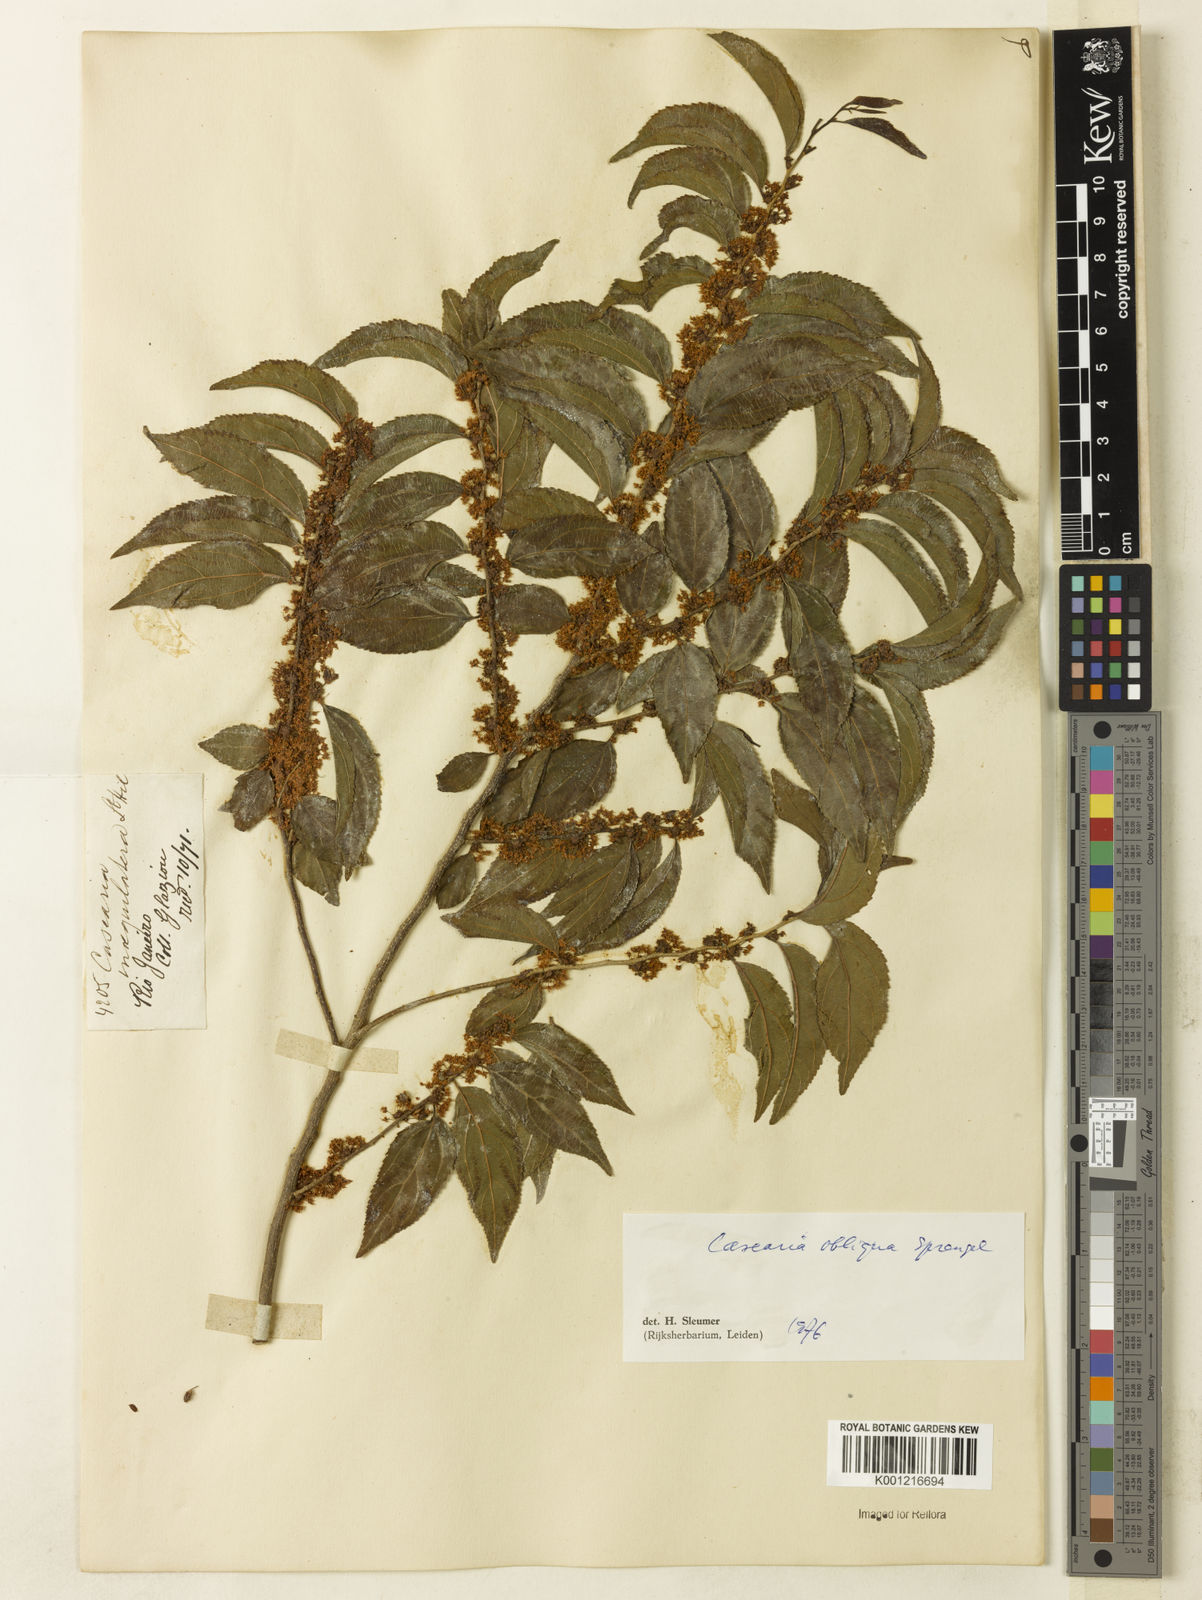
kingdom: Plantae
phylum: Tracheophyta
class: Magnoliopsida
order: Malpighiales
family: Salicaceae
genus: Casearia
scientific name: Casearia obliqua
